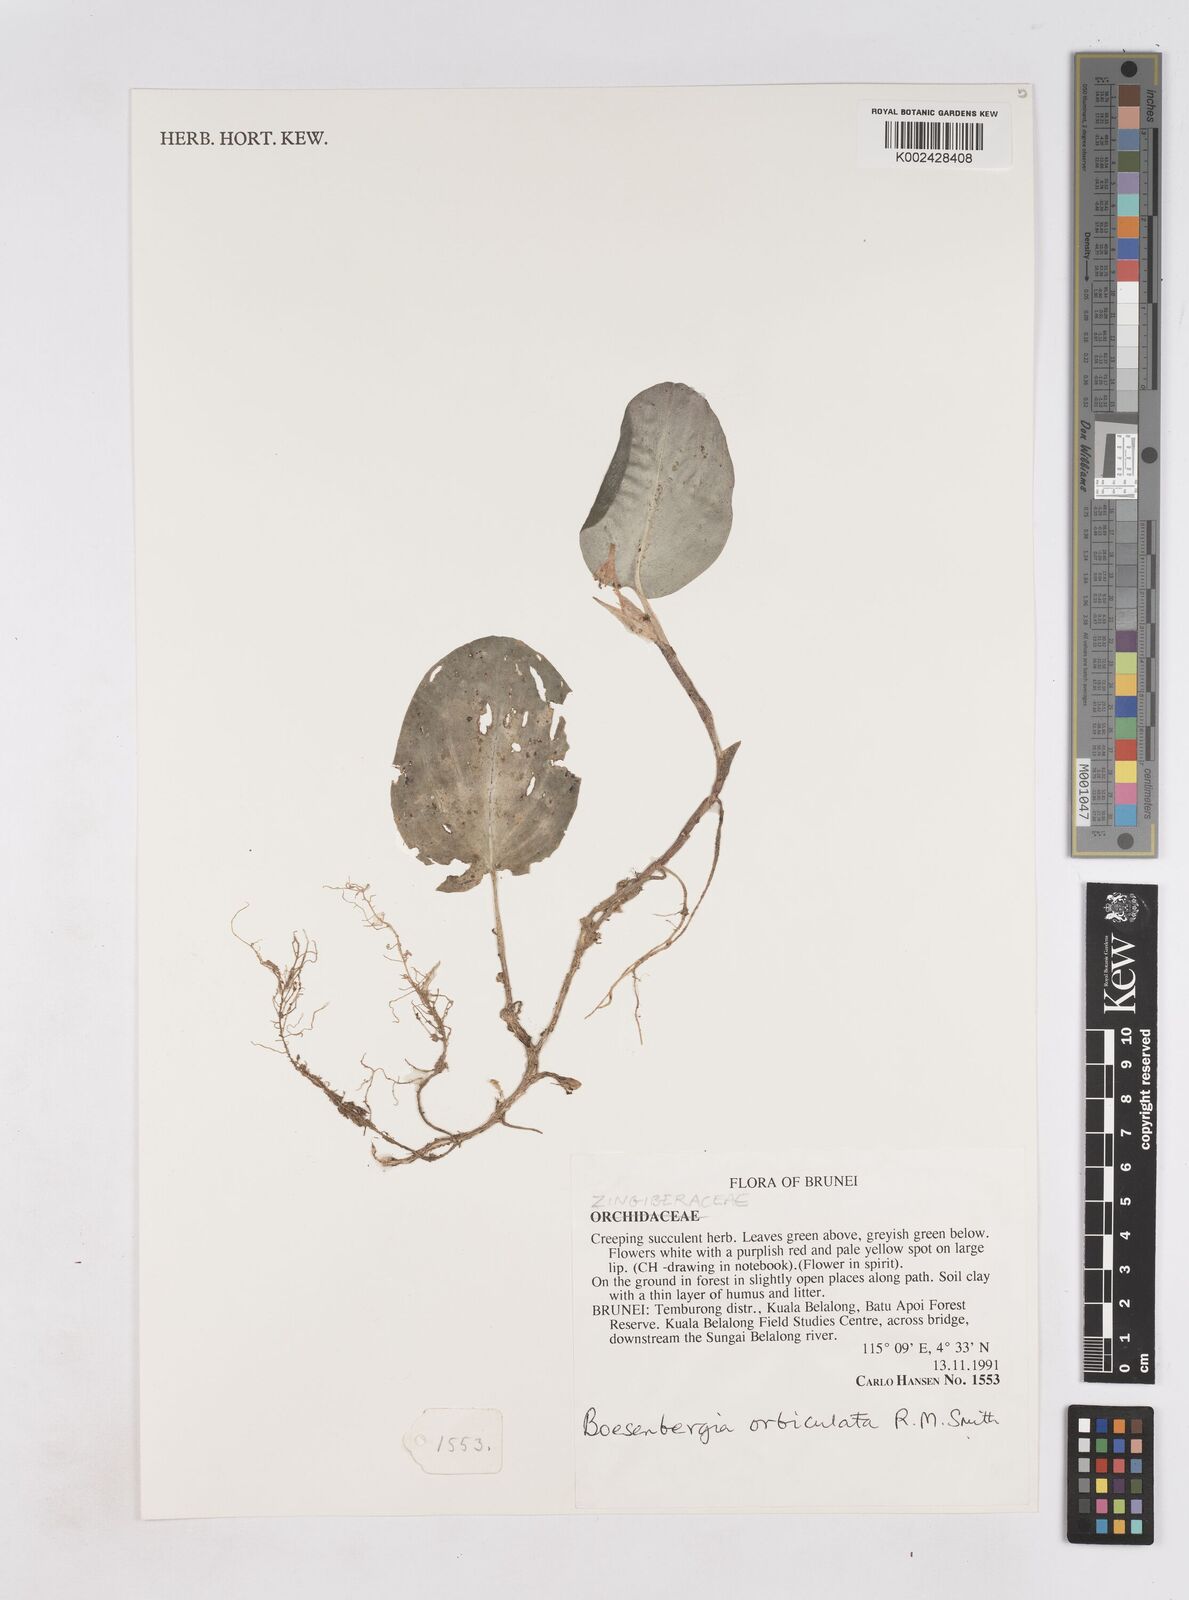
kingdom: Plantae
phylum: Tracheophyta
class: Liliopsida
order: Zingiberales
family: Zingiberaceae
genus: Boesenbergia
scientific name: Boesenbergia orbiculata
